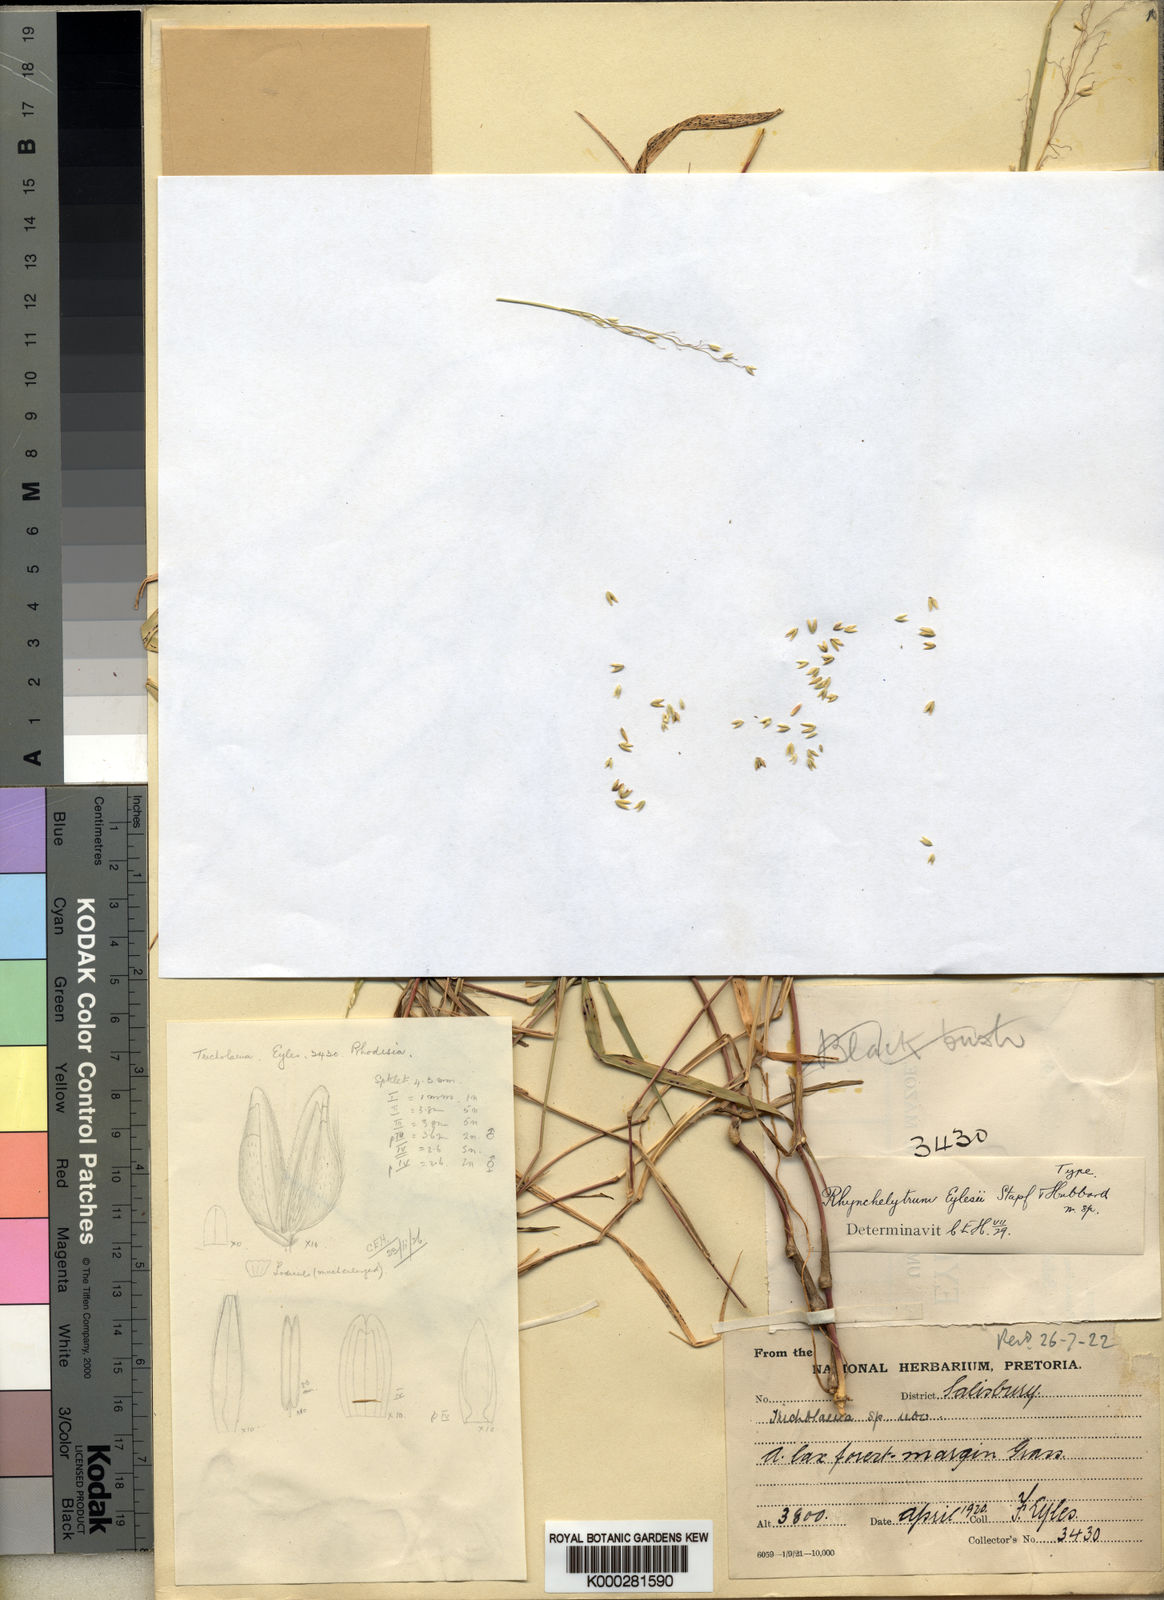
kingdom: Plantae
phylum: Tracheophyta
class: Liliopsida
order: Poales
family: Poaceae
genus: Melinis
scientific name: Melinis subglabra
